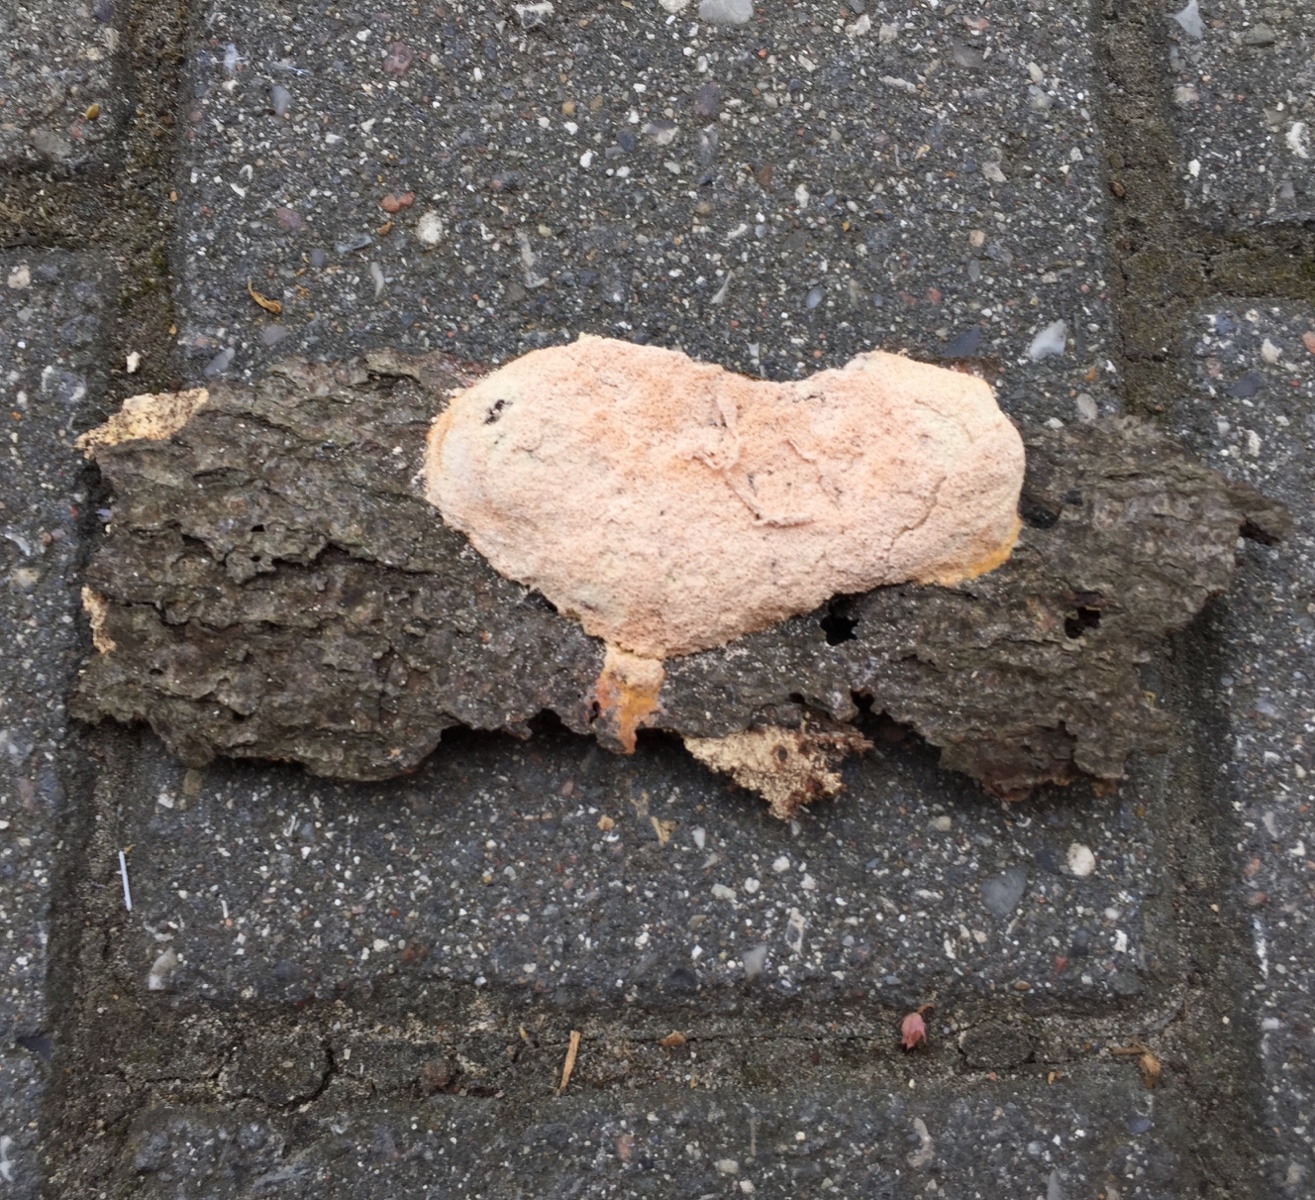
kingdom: Protozoa
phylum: Mycetozoa
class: Myxomycetes
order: Physarales
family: Physaraceae
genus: Fuligo
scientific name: Fuligo septica
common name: Dog vomit slime mold
